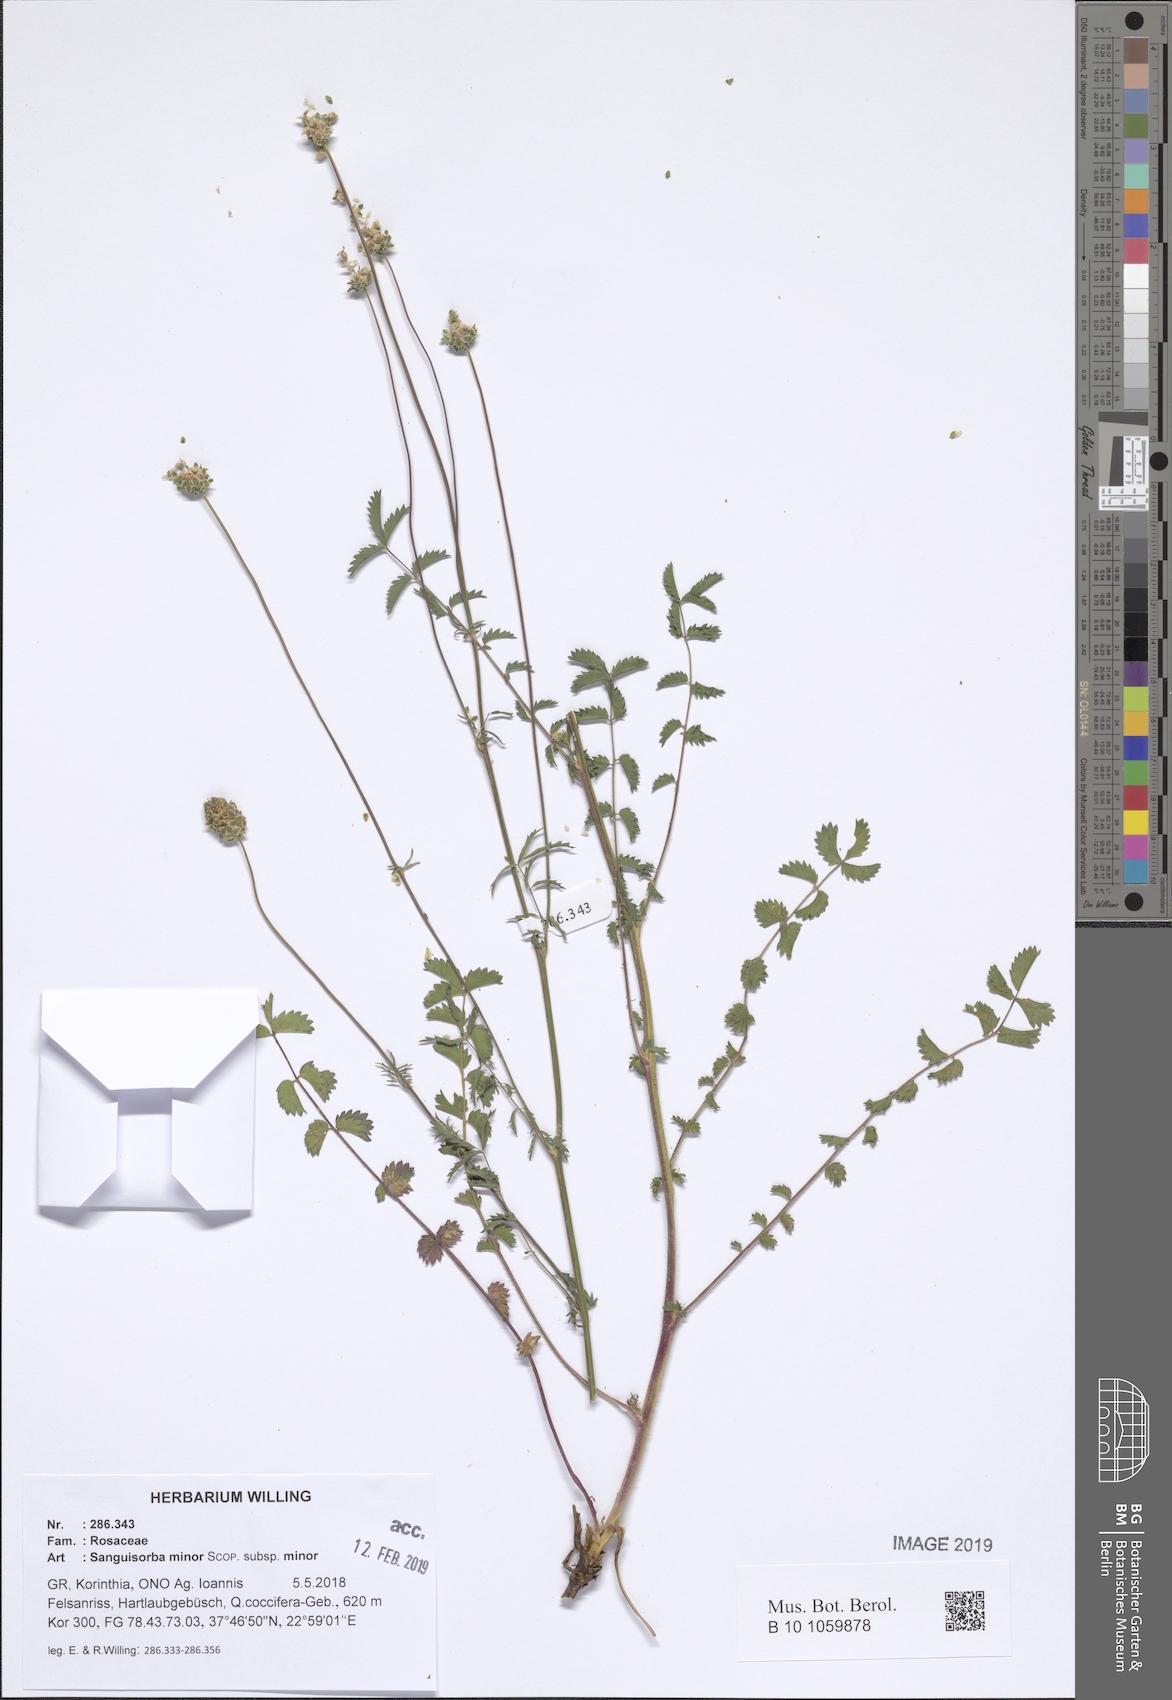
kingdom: Plantae
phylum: Tracheophyta
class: Magnoliopsida
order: Rosales
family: Rosaceae
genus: Poterium
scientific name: Poterium sanguisorba
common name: Salad burnet
